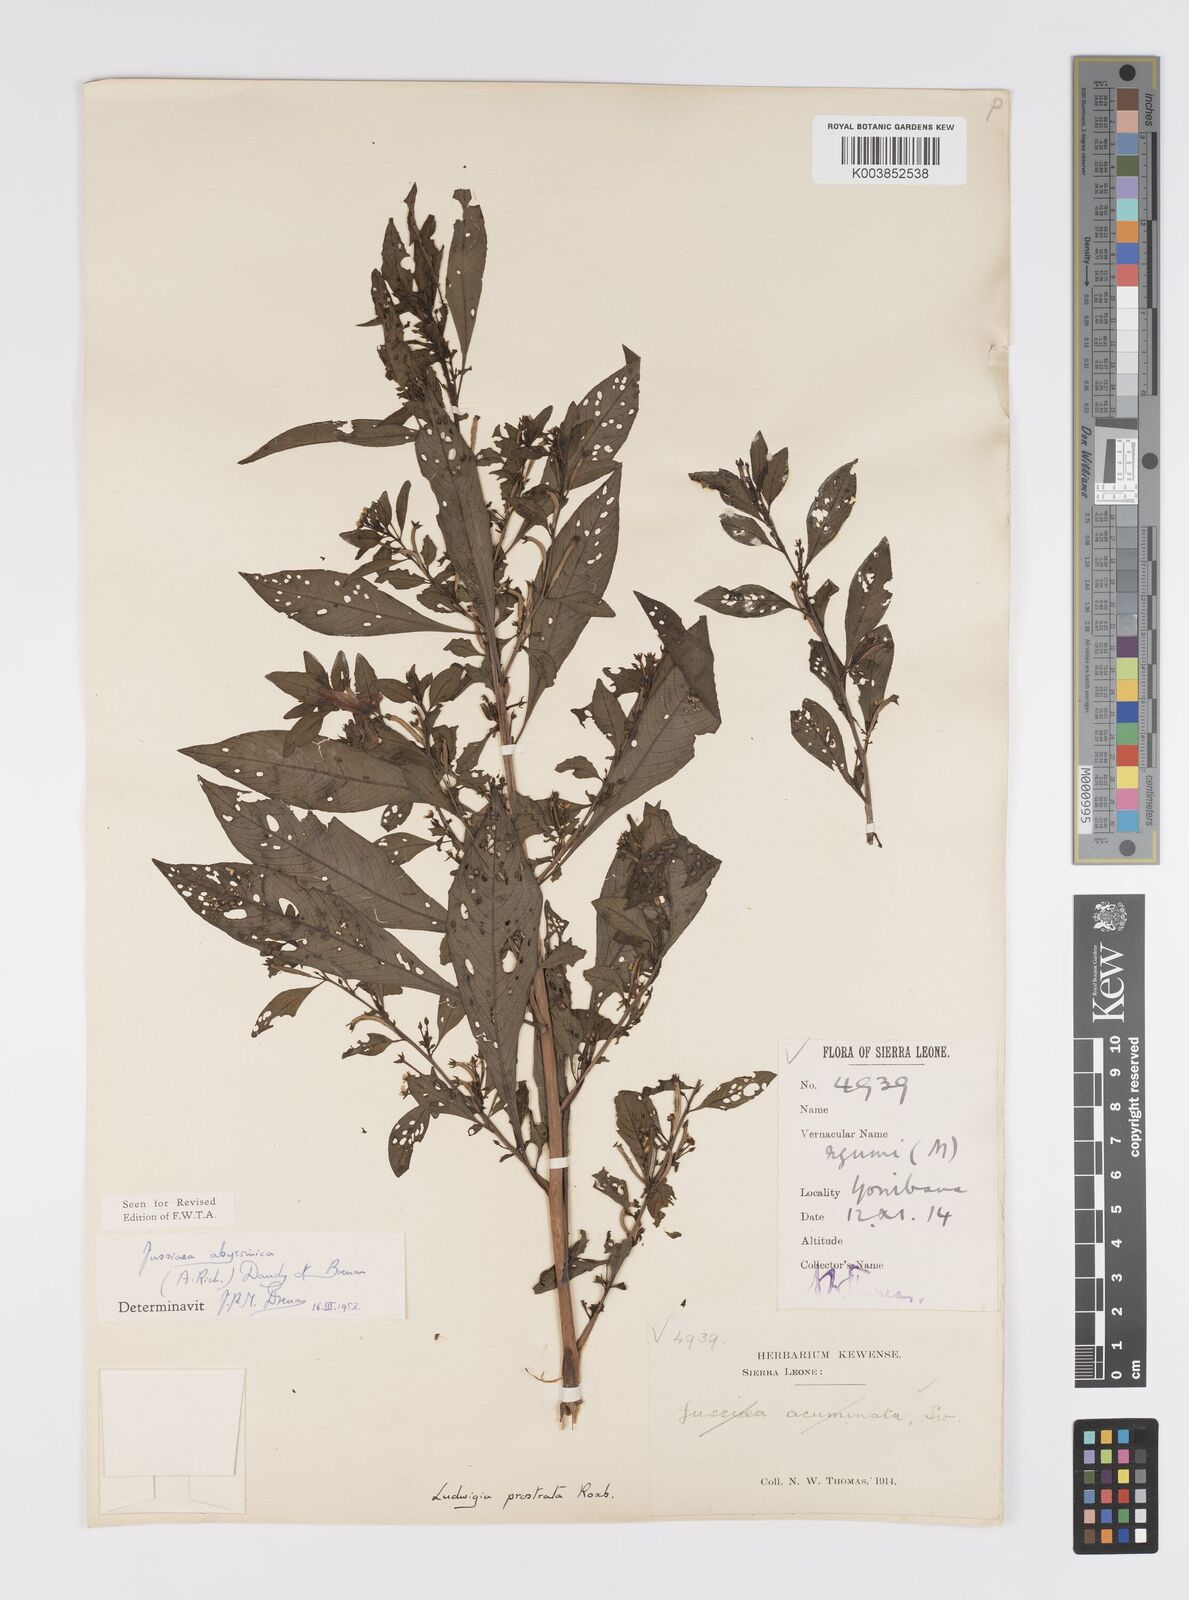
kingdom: Plantae
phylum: Tracheophyta
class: Magnoliopsida
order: Myrtales
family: Onagraceae
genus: Ludwigia
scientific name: Ludwigia abyssinica
